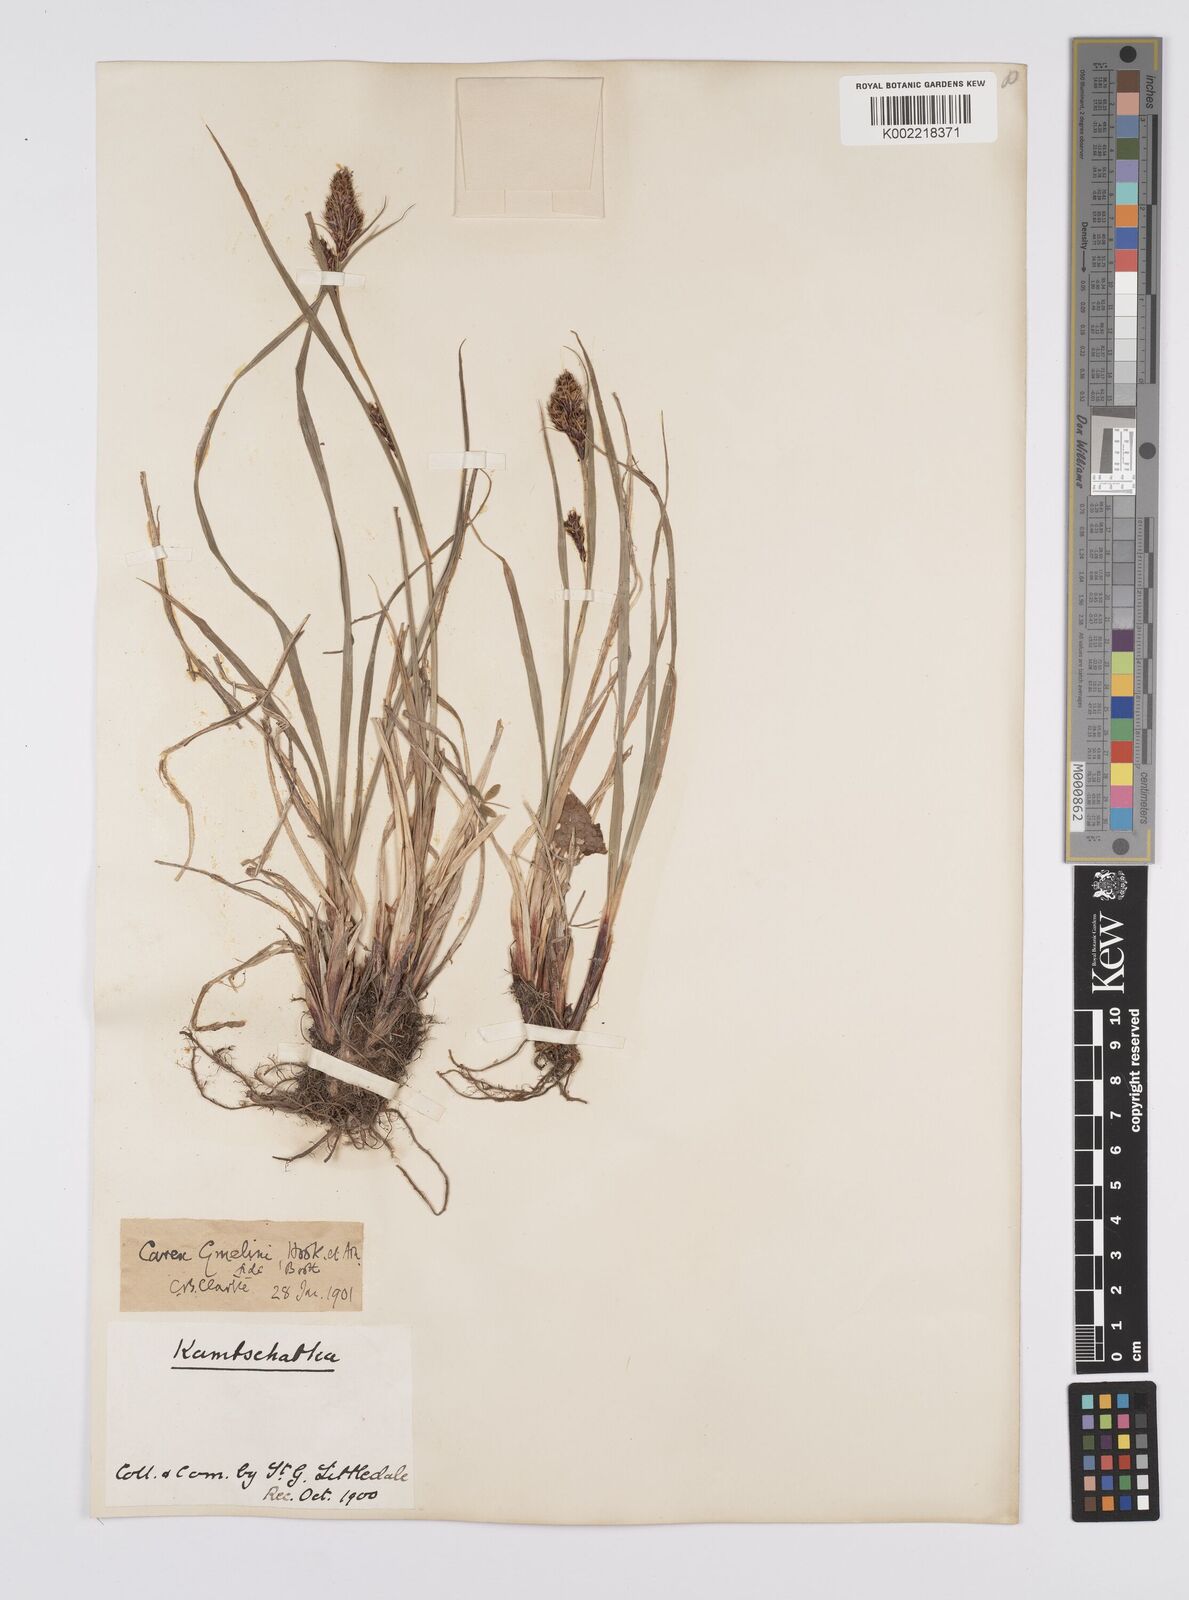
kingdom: Plantae
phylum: Tracheophyta
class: Liliopsida
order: Poales
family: Cyperaceae
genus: Carex
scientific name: Carex gmelinii
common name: Gmelin's sedge
